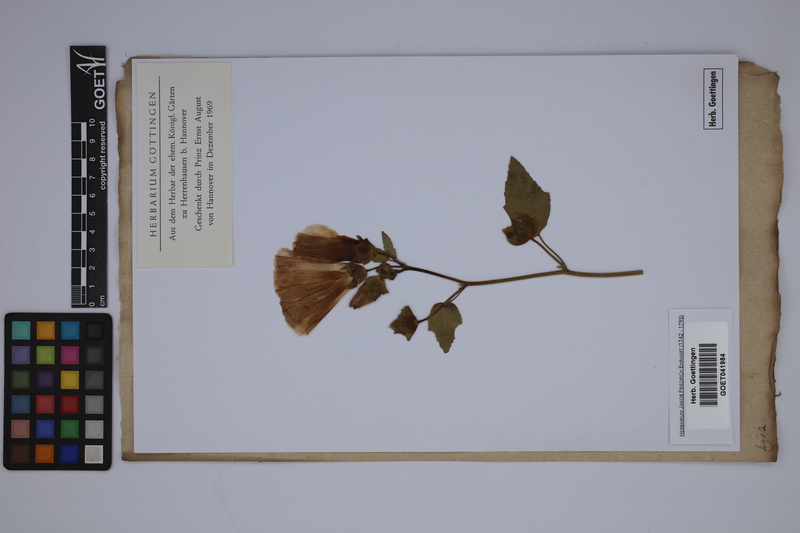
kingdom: Plantae
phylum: Tracheophyta
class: Magnoliopsida
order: Malvales
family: Malvaceae
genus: Malva
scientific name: Malva trimestris
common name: Royal mallow
